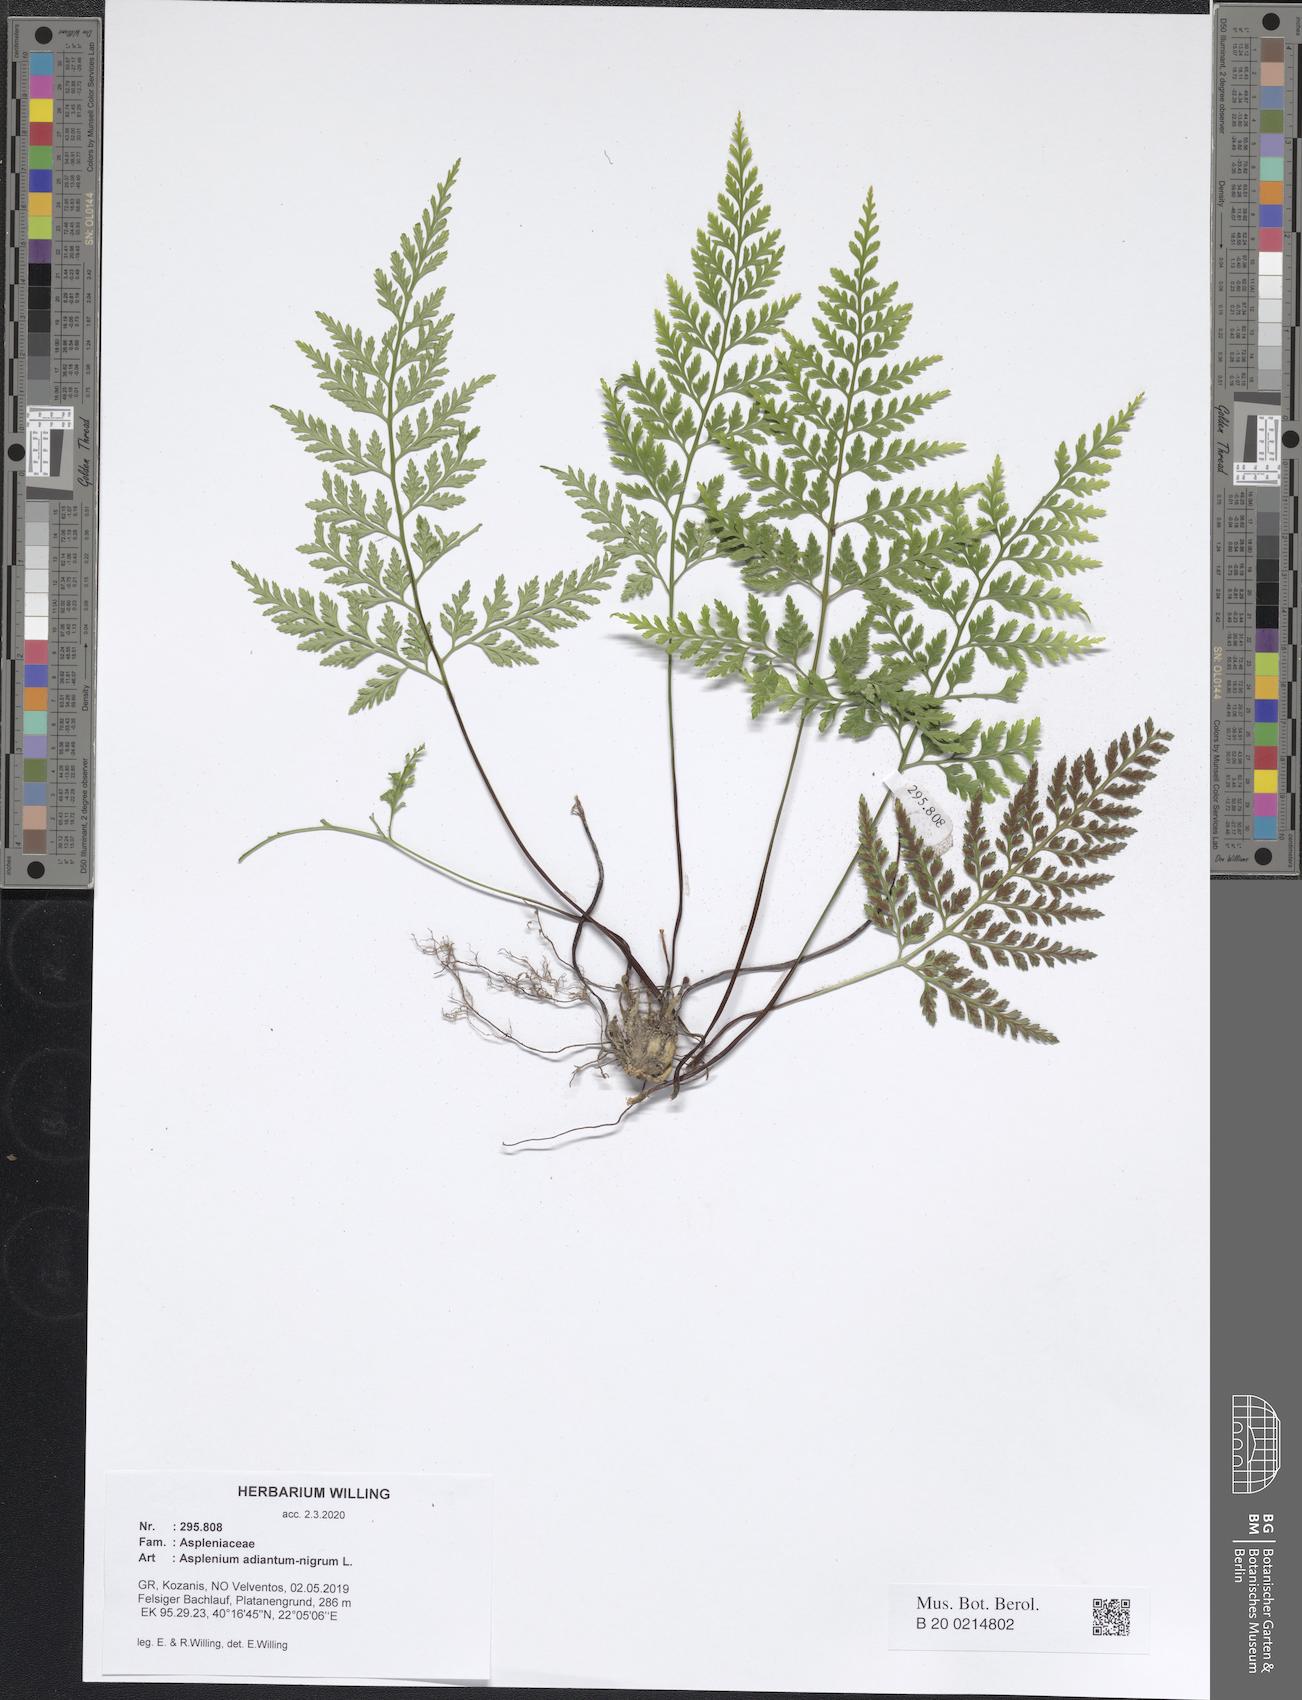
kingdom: Plantae
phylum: Tracheophyta
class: Polypodiopsida
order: Polypodiales
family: Aspleniaceae
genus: Asplenium
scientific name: Asplenium adiantum-nigrum
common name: Black spleenwort
